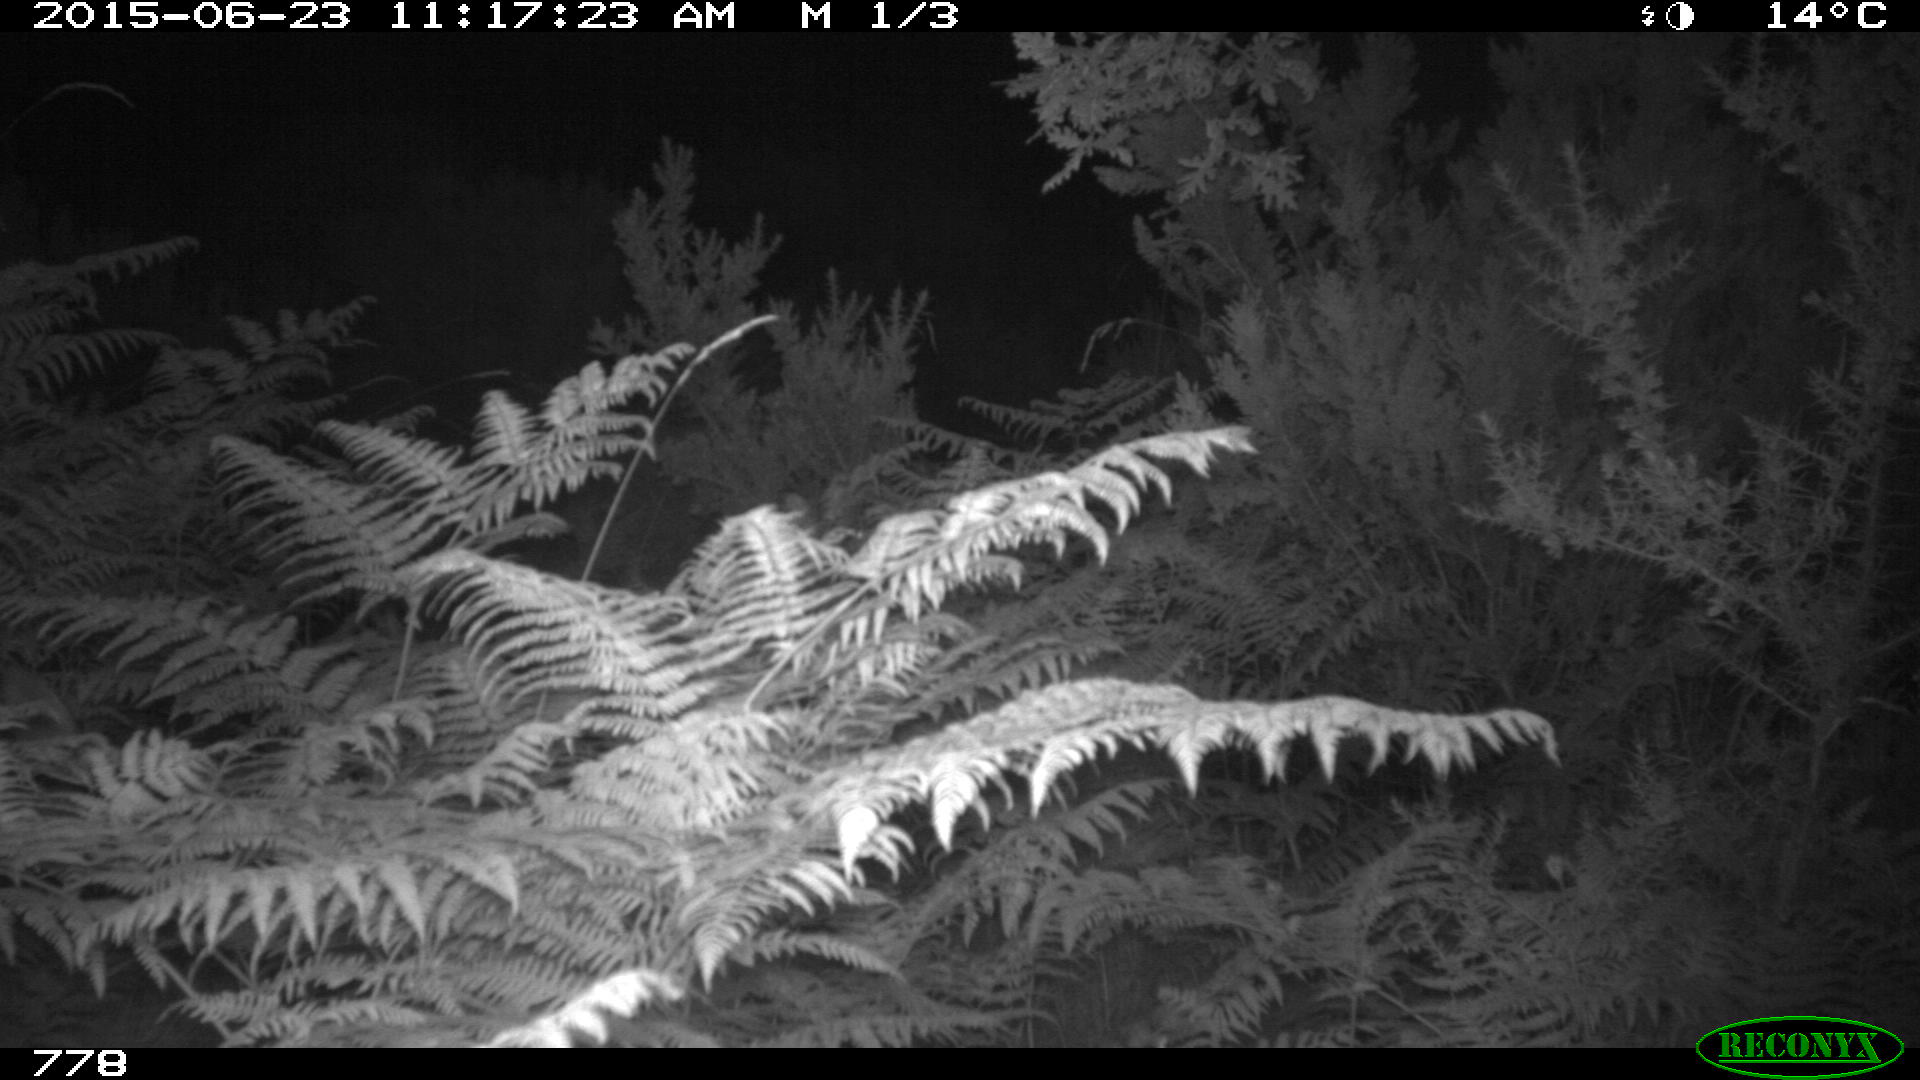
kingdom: Animalia
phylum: Chordata
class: Mammalia
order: Artiodactyla
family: Cervidae
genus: Capreolus
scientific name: Capreolus capreolus
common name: Western roe deer
